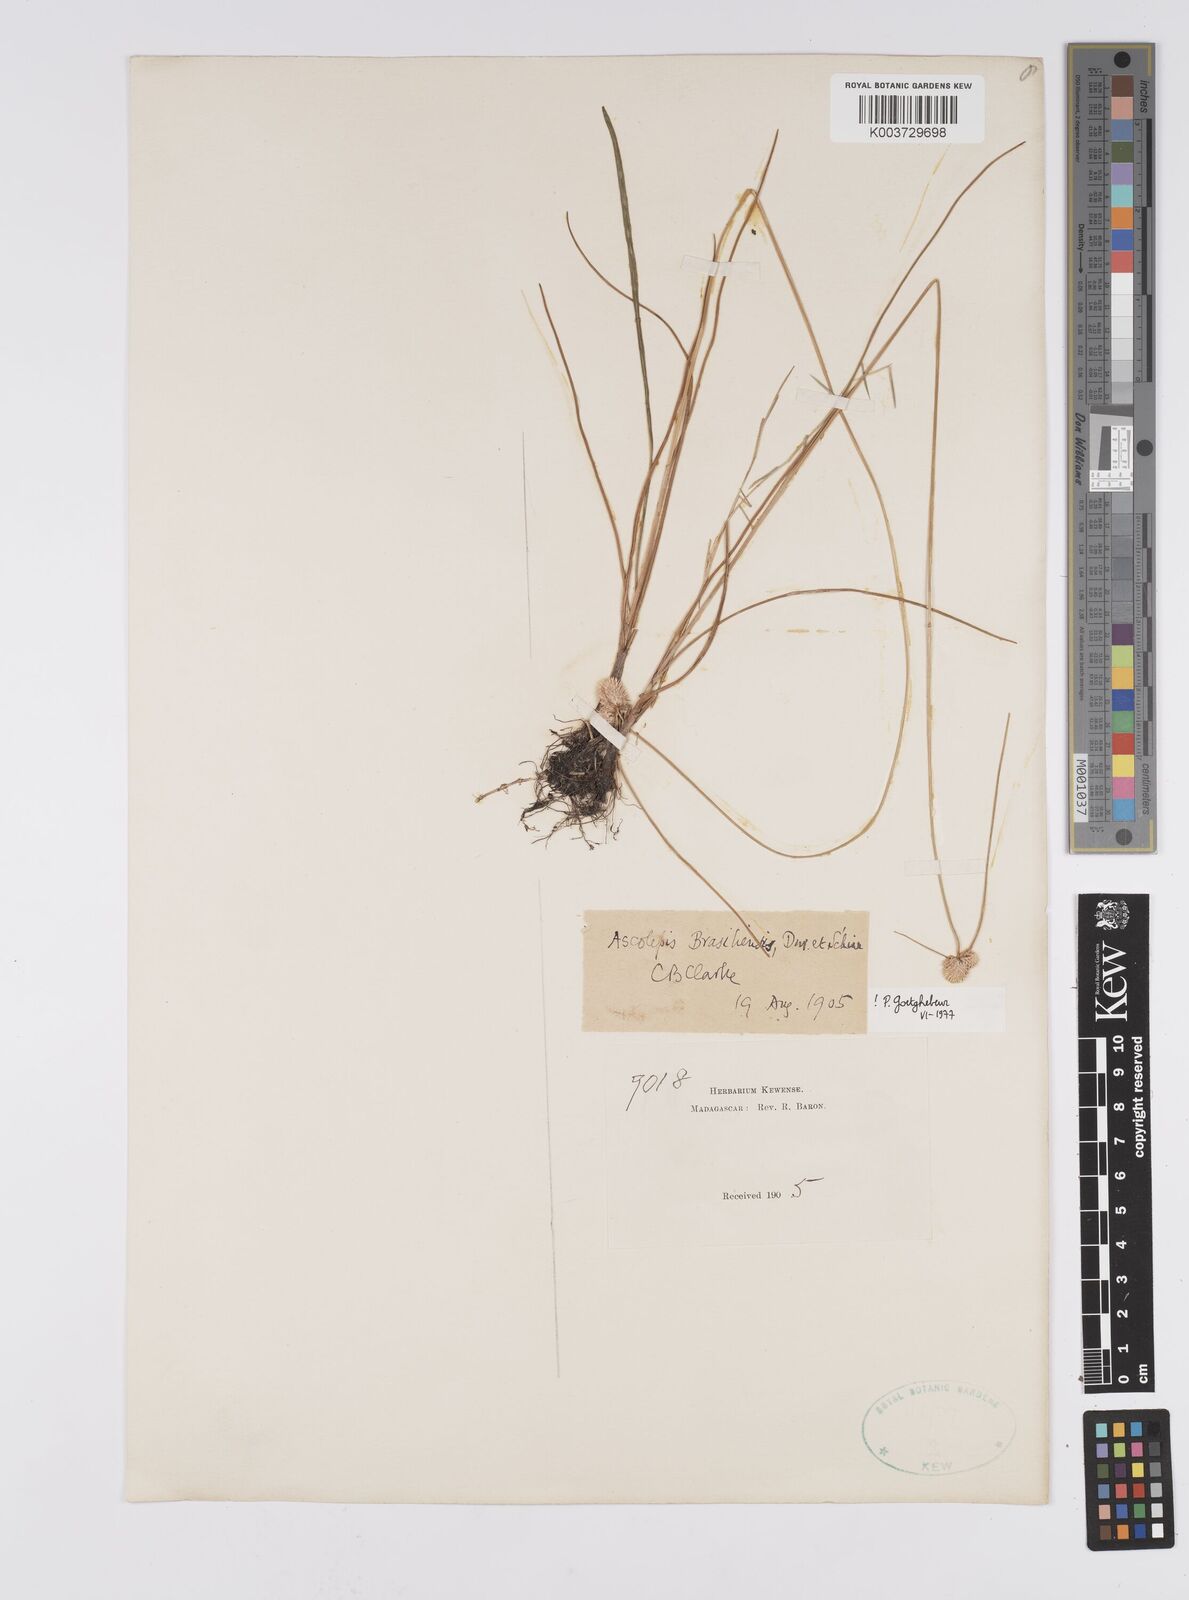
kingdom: Plantae
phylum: Tracheophyta
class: Liliopsida
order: Poales
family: Cyperaceae
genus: Cyperus
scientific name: Cyperus brasiliensis
